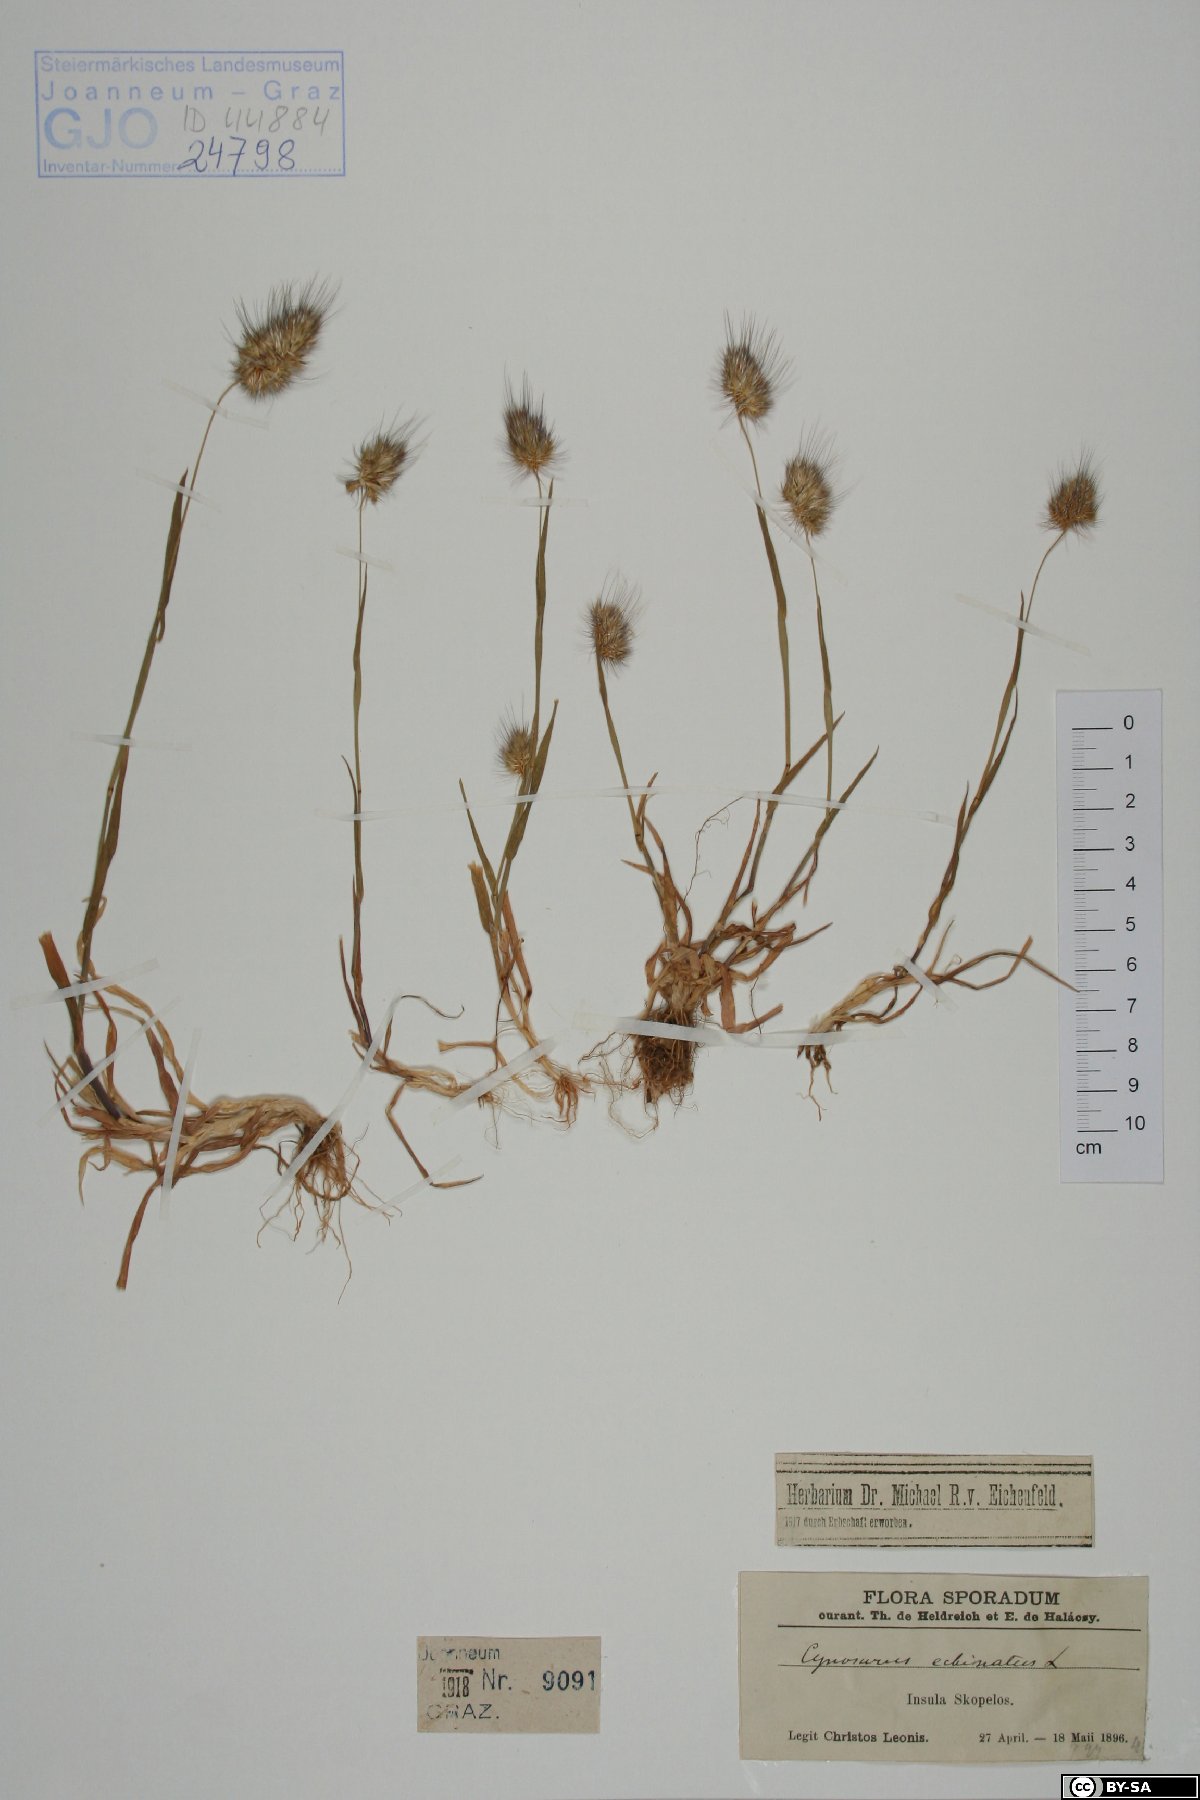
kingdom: Plantae
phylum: Tracheophyta
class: Liliopsida
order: Poales
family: Poaceae
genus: Cynosurus
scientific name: Cynosurus echinatus
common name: Rough dog's-tail
